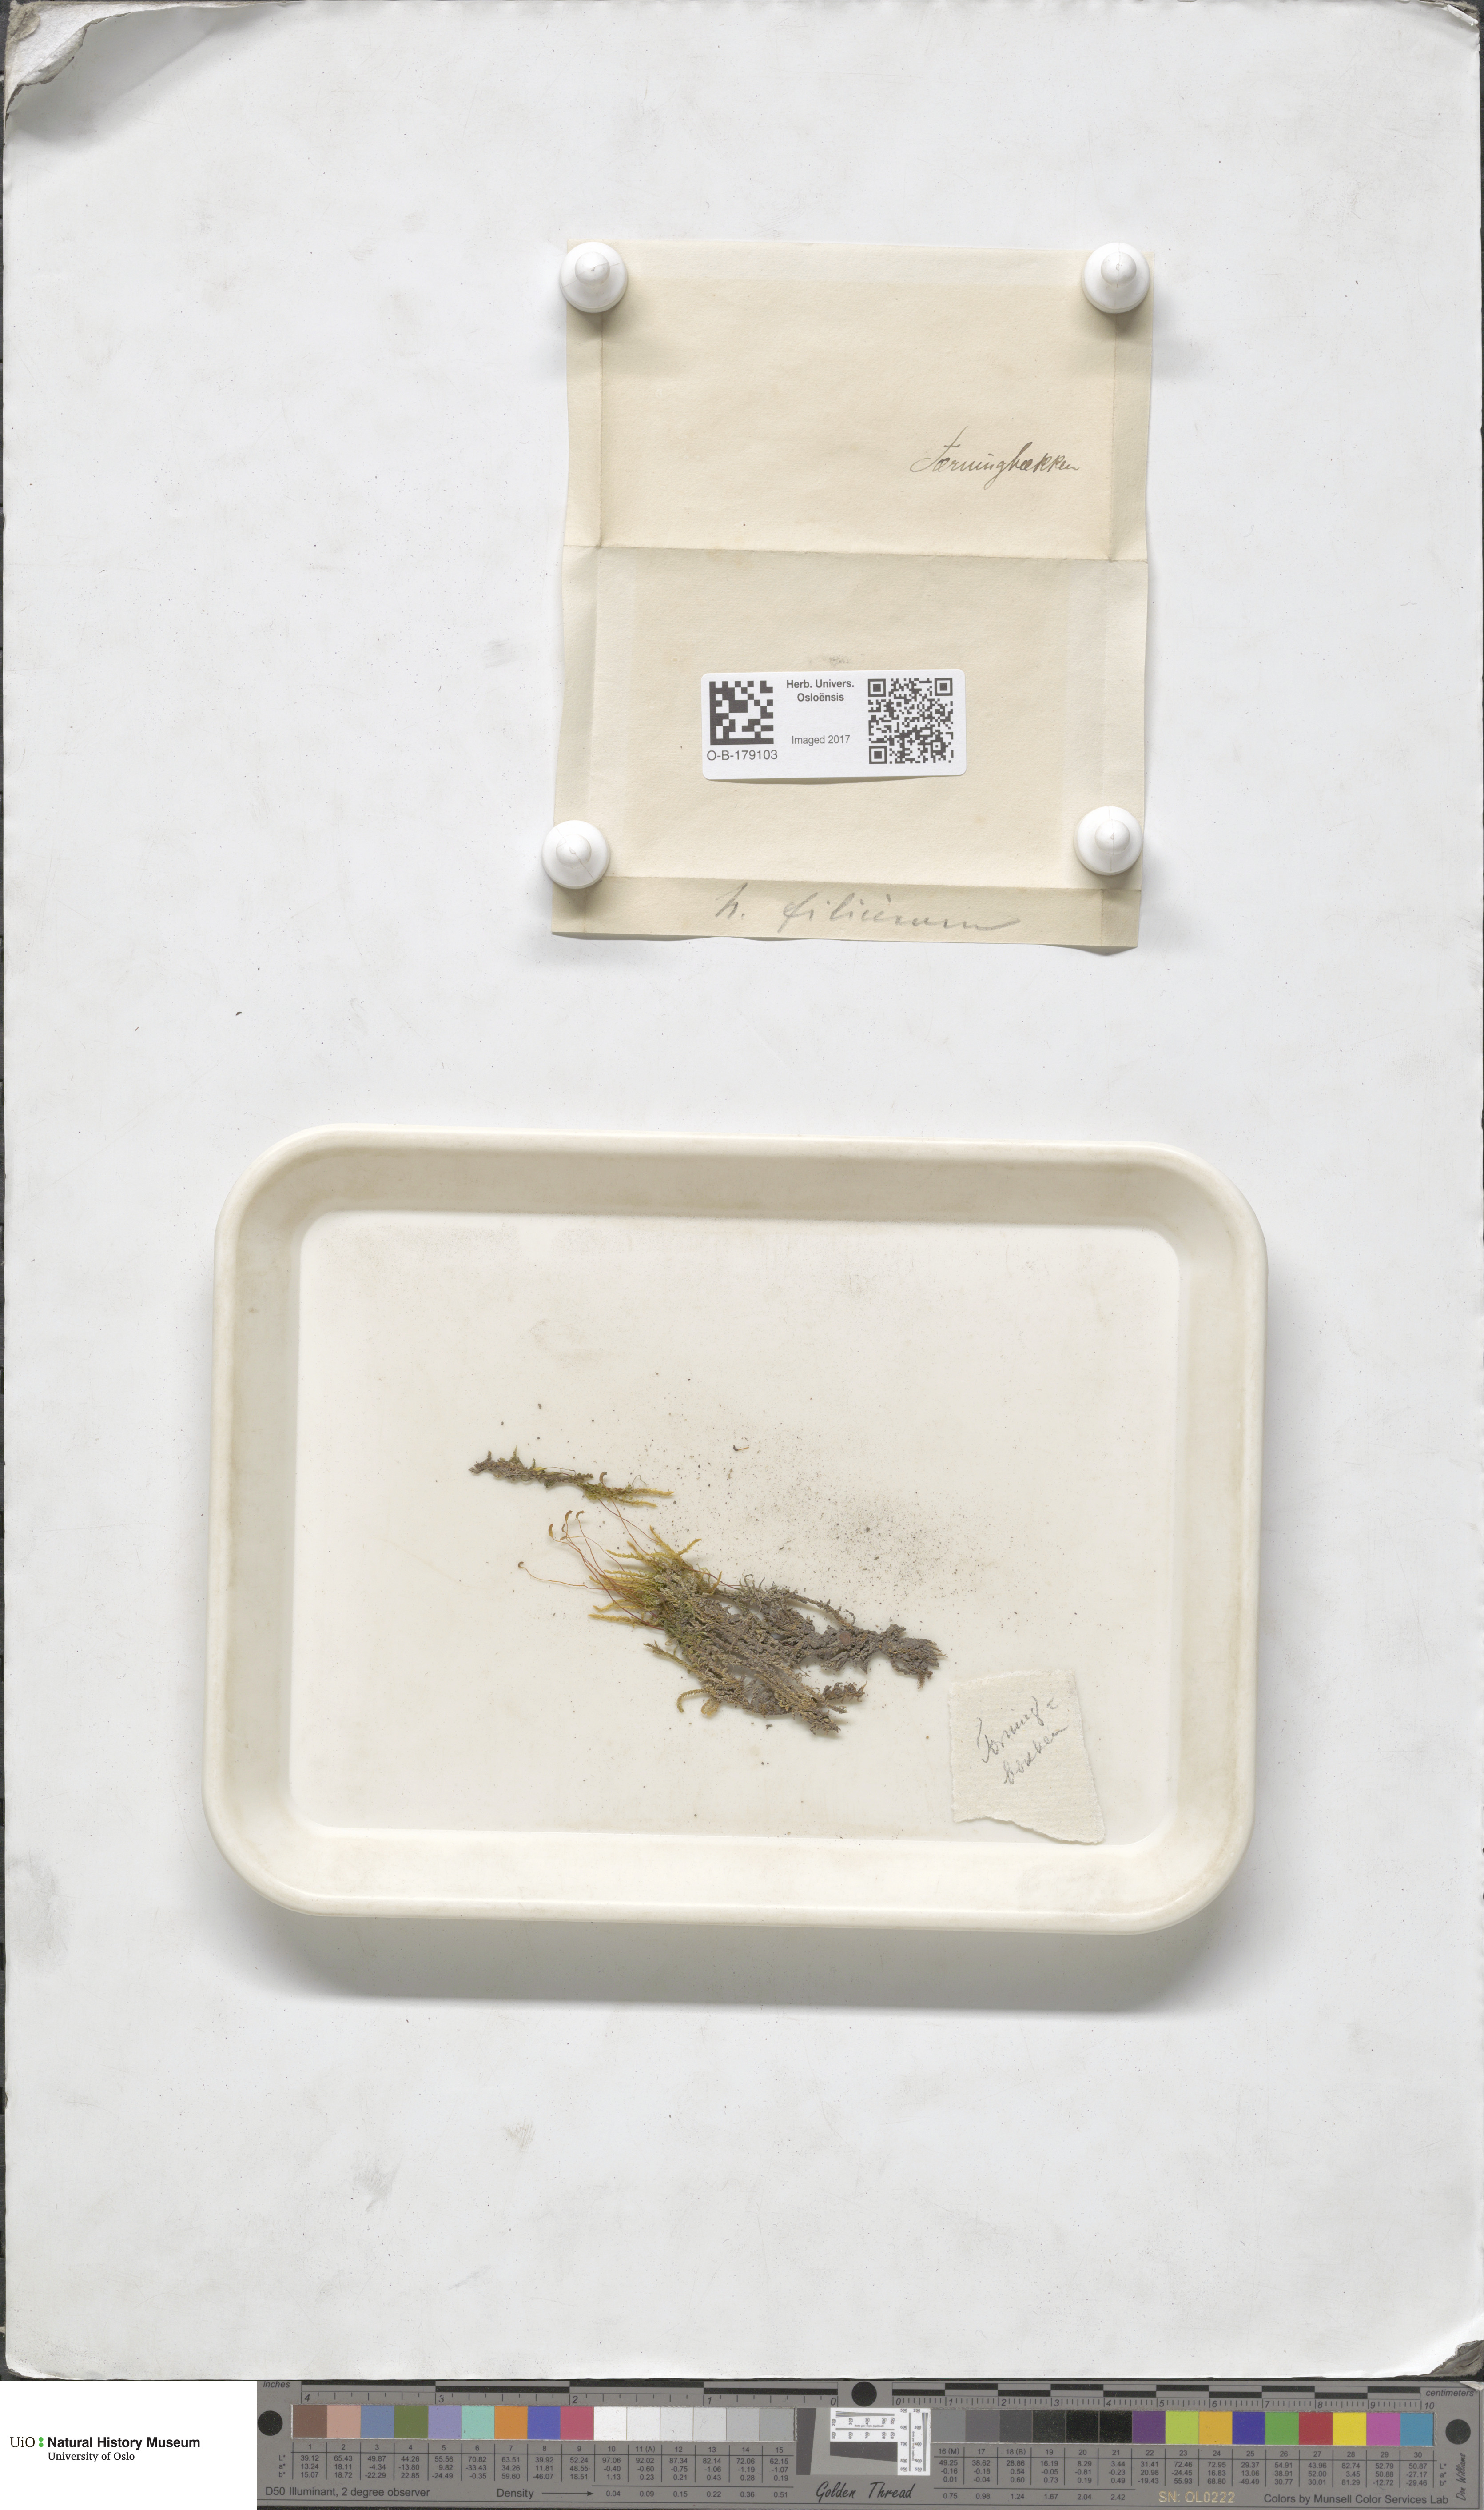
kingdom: Plantae
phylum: Bryophyta
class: Bryopsida
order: Hypnales
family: Amblystegiaceae
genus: Cratoneuron
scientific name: Cratoneuron filicinum
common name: Fern-leaved hook moss
